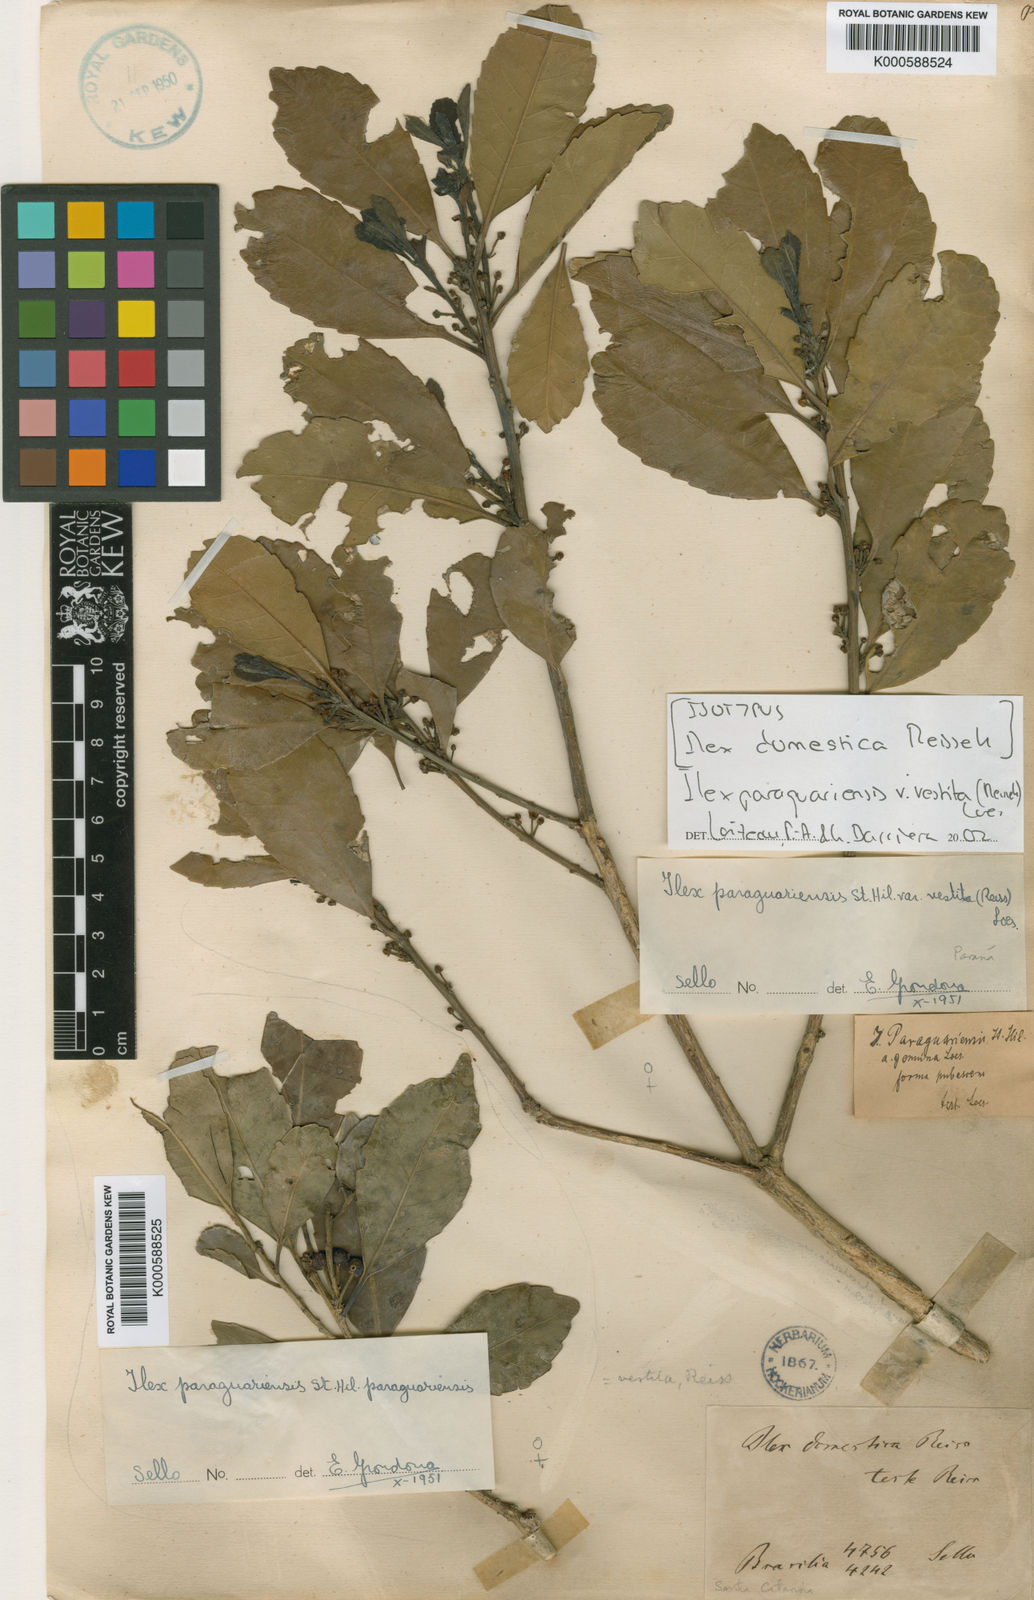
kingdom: Plantae
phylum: Tracheophyta
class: Magnoliopsida
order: Aquifoliales
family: Aquifoliaceae
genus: Ilex
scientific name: Ilex paraguariensis
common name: Paraguay tea
